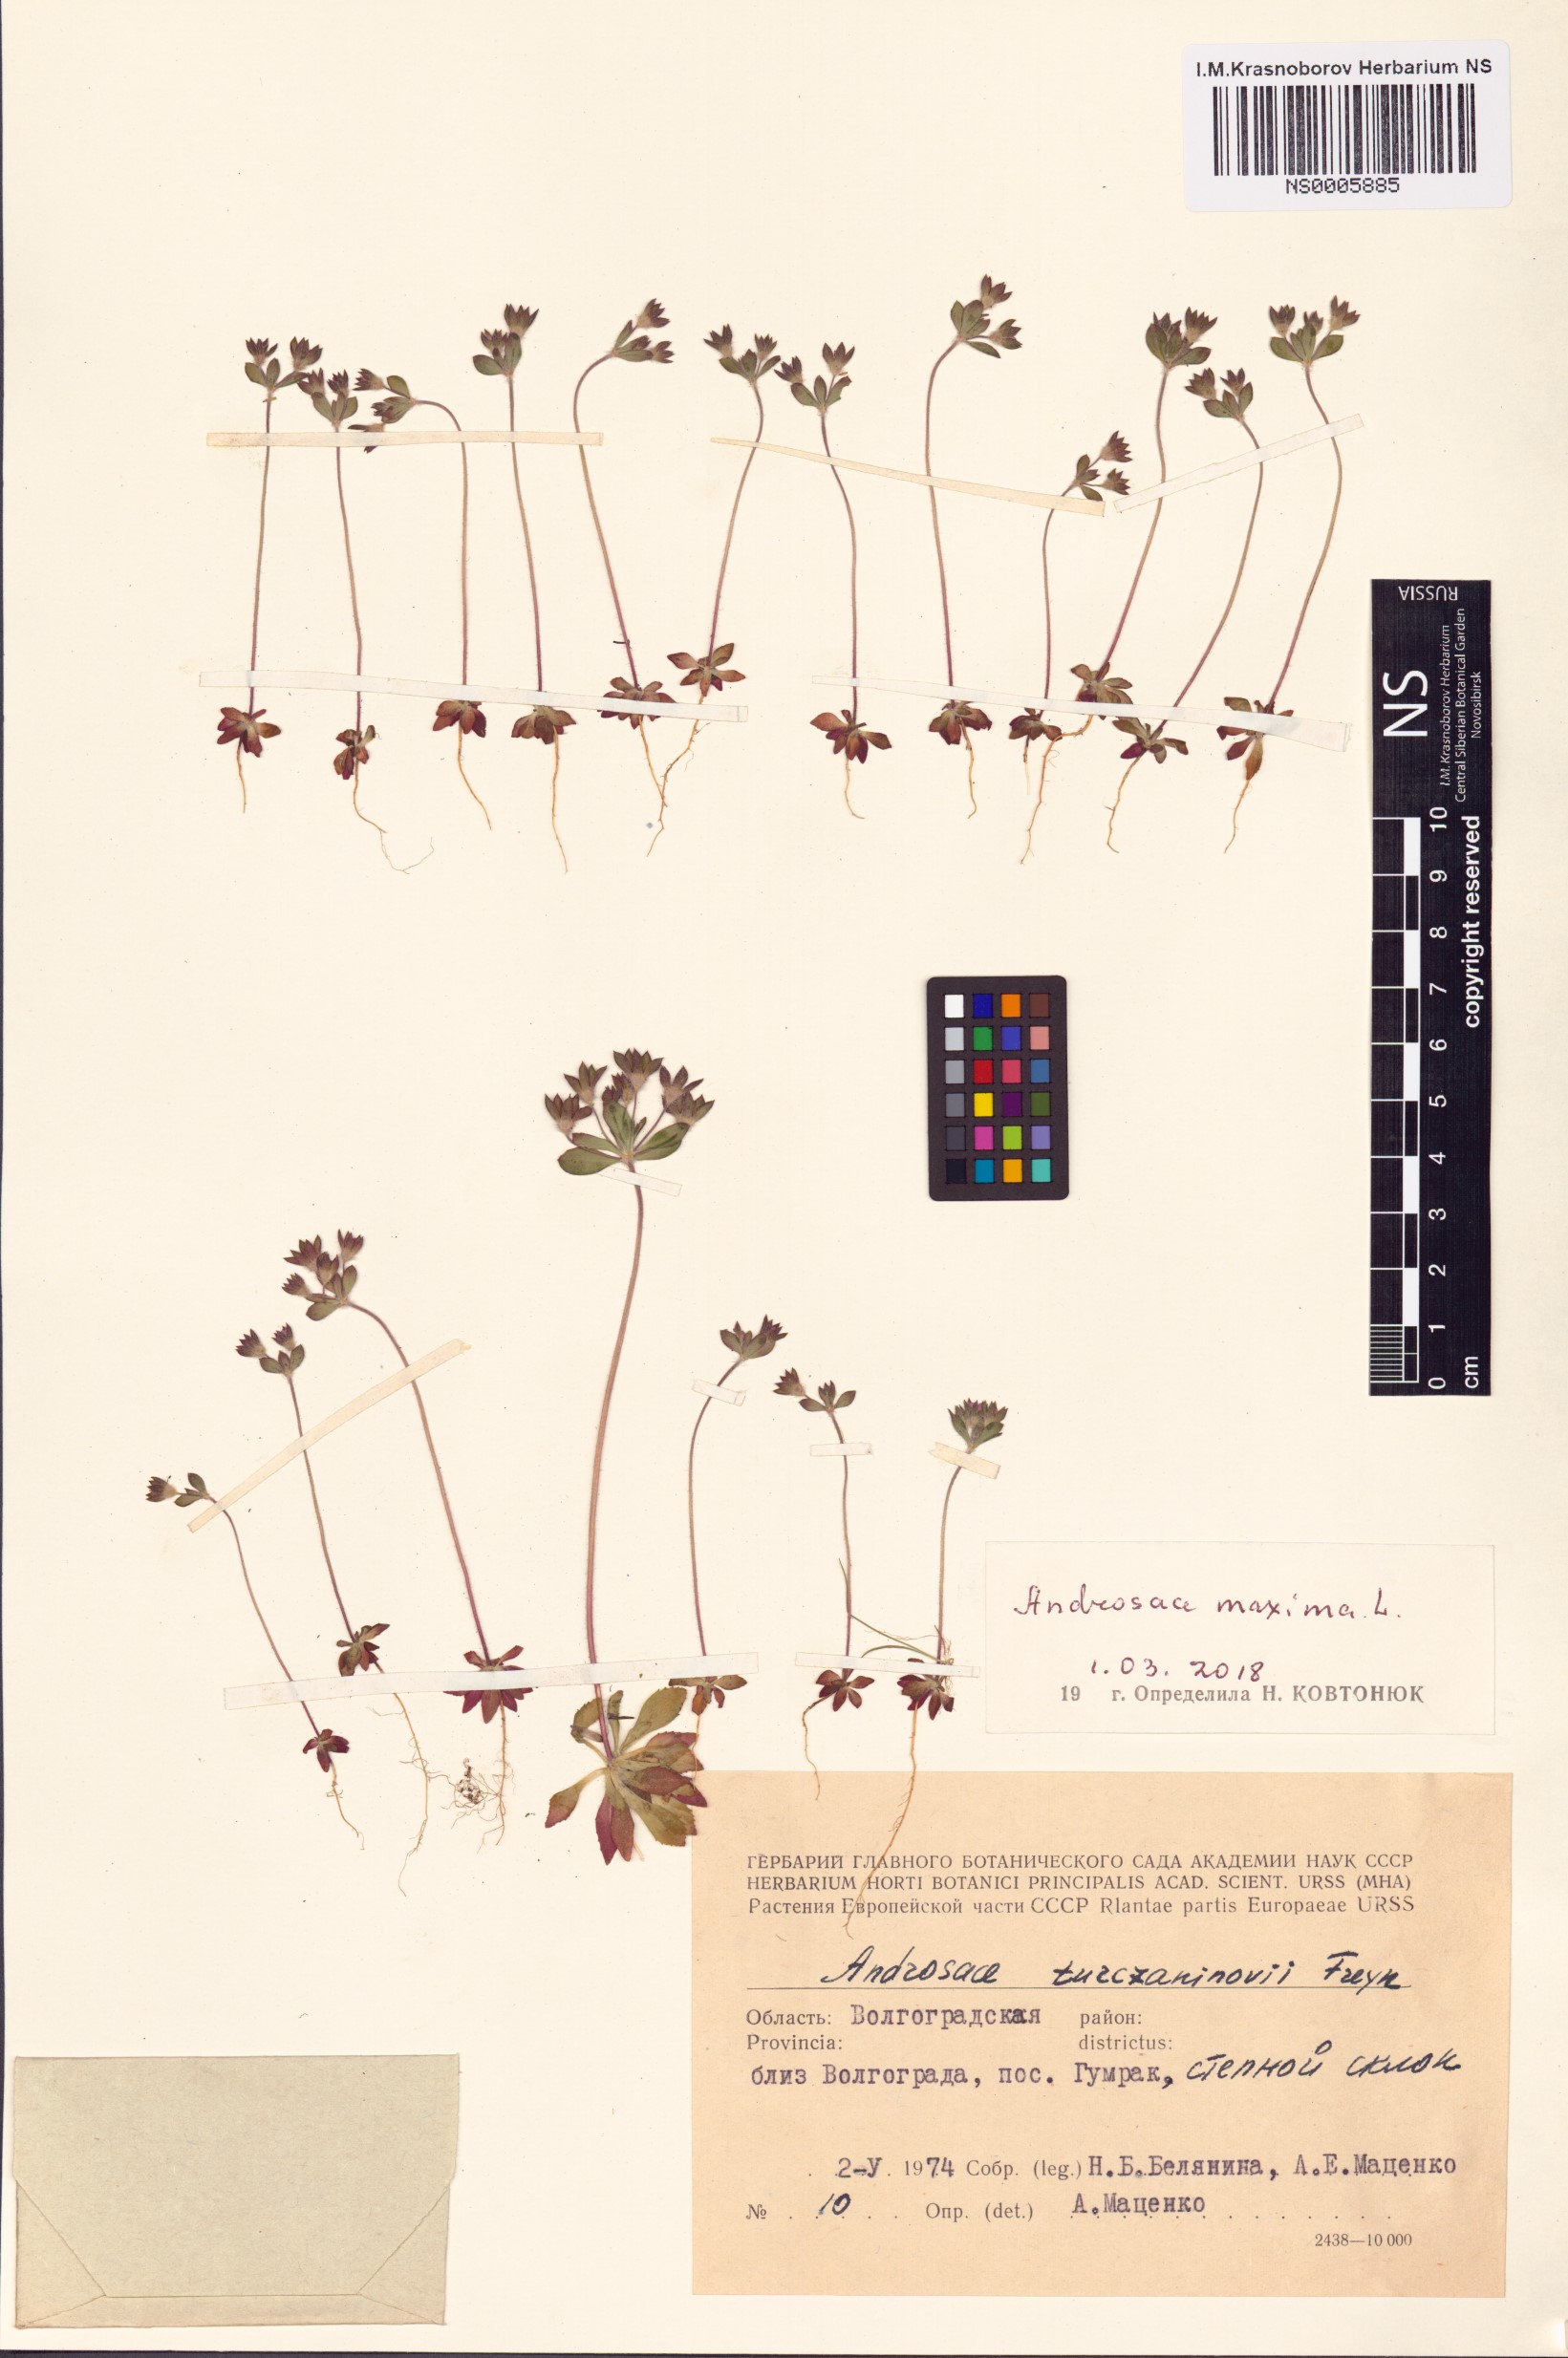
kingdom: Plantae
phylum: Tracheophyta
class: Magnoliopsida
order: Ericales
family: Primulaceae
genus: Androsace
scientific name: Androsace maxima
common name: Annual androsace
